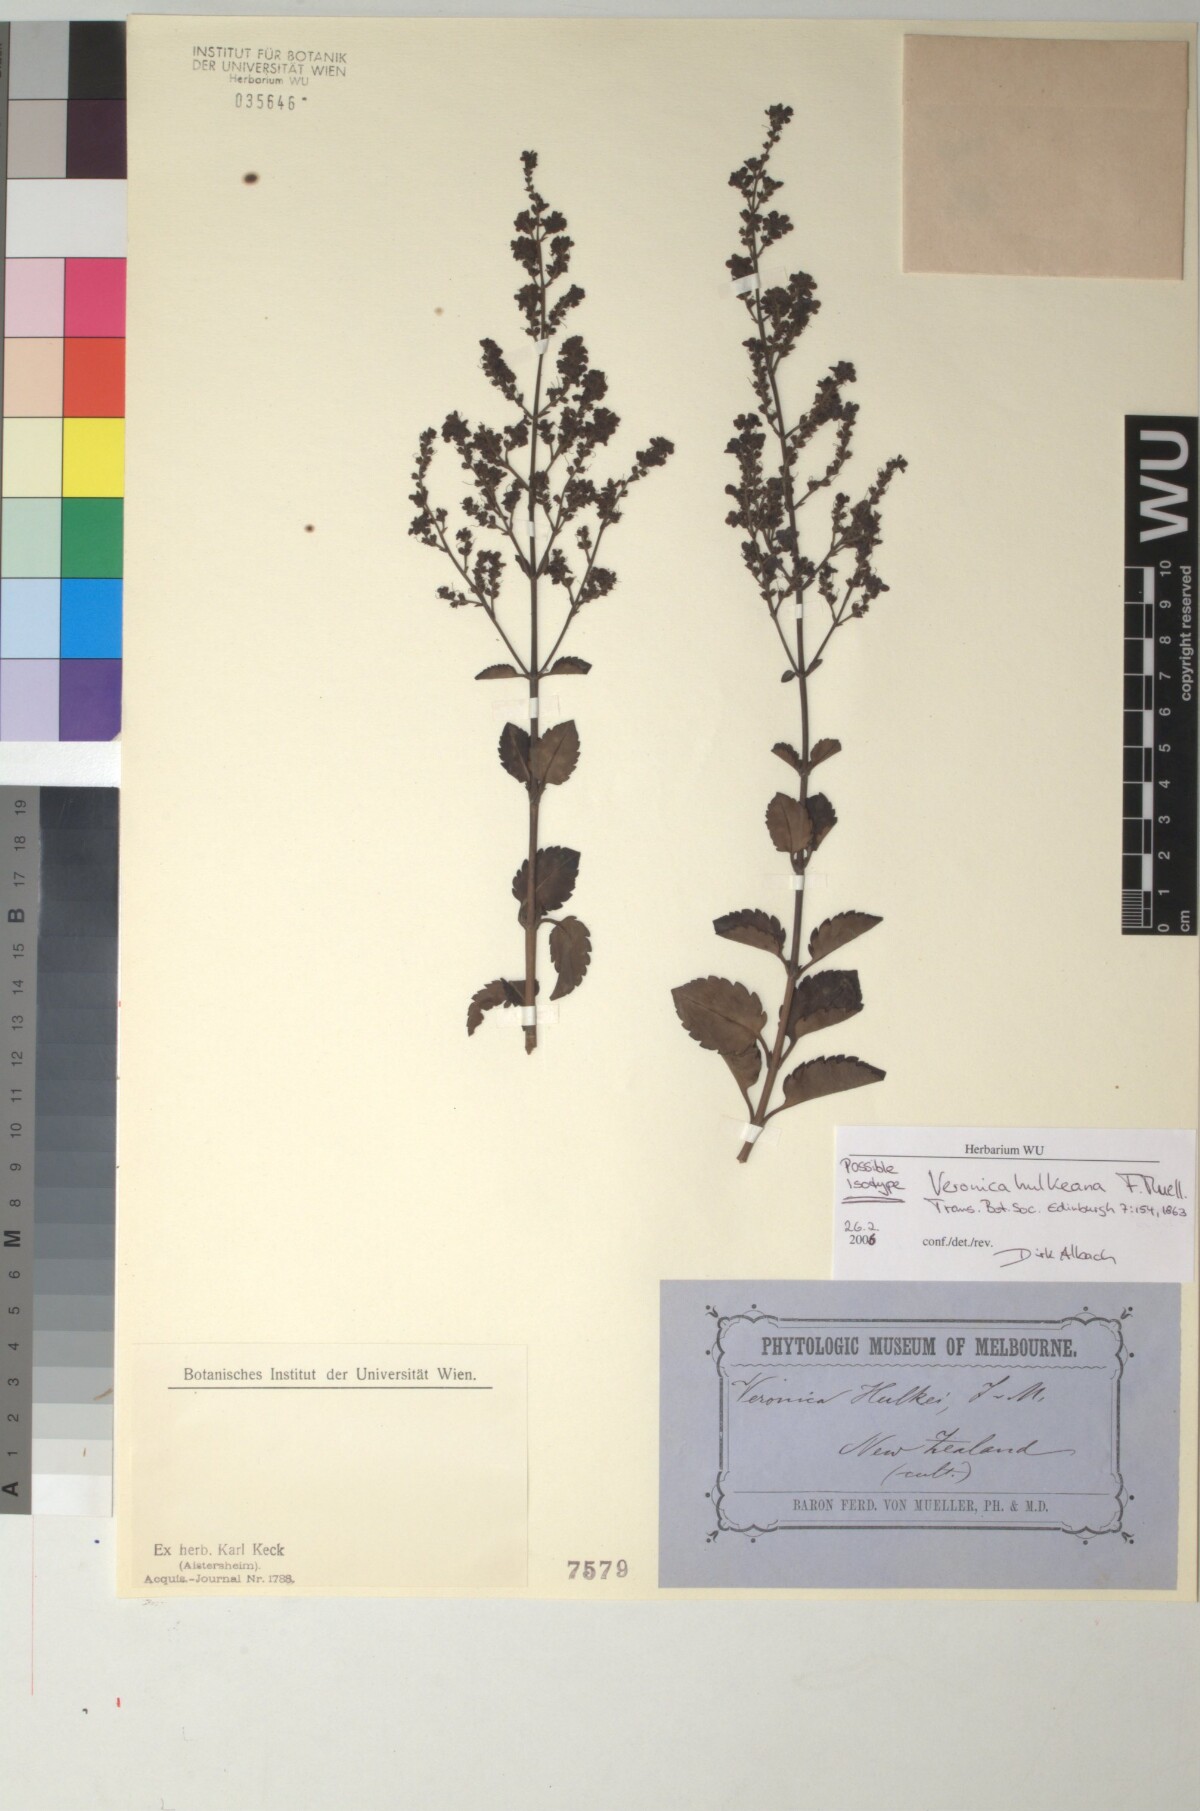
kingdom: Plantae
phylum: Tracheophyta
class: Magnoliopsida
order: Lamiales
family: Plantaginaceae
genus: Veronica
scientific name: Veronica hulkeana
